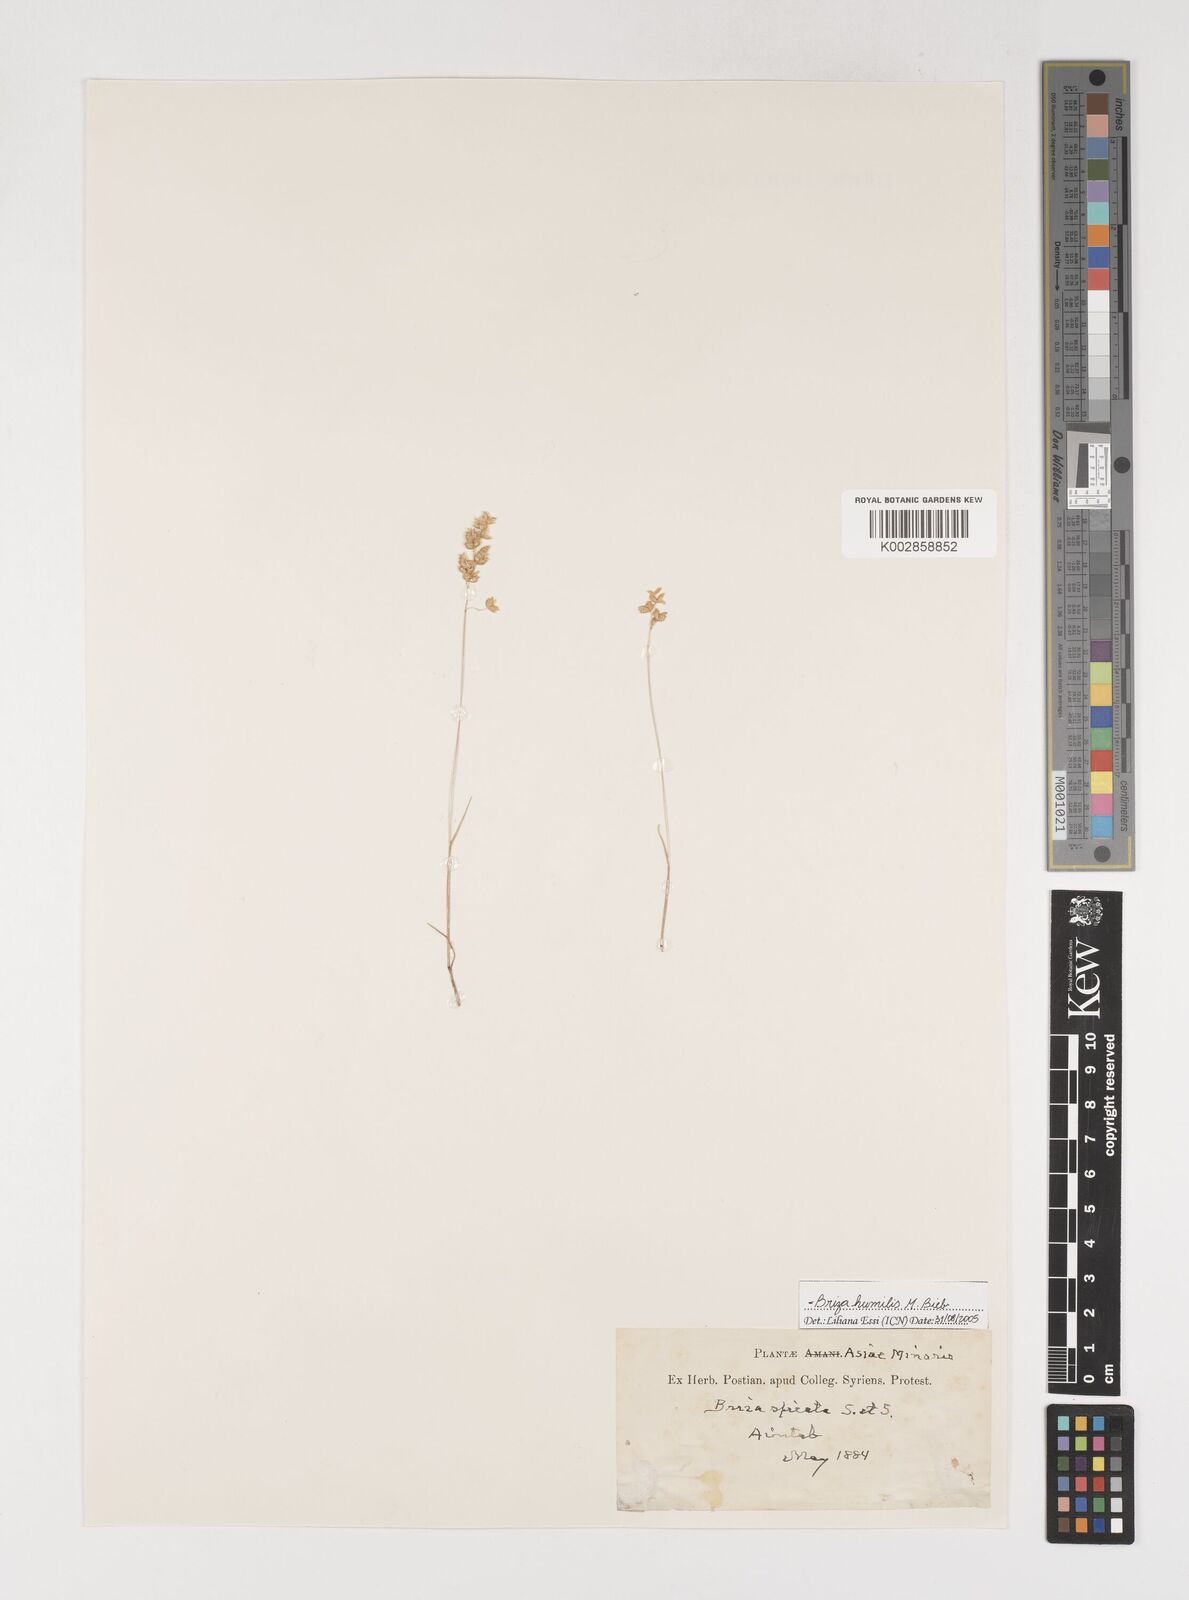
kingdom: Plantae
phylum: Tracheophyta
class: Liliopsida
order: Poales
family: Poaceae
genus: Briza
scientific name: Briza humilis
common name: Spiked quaking grass
